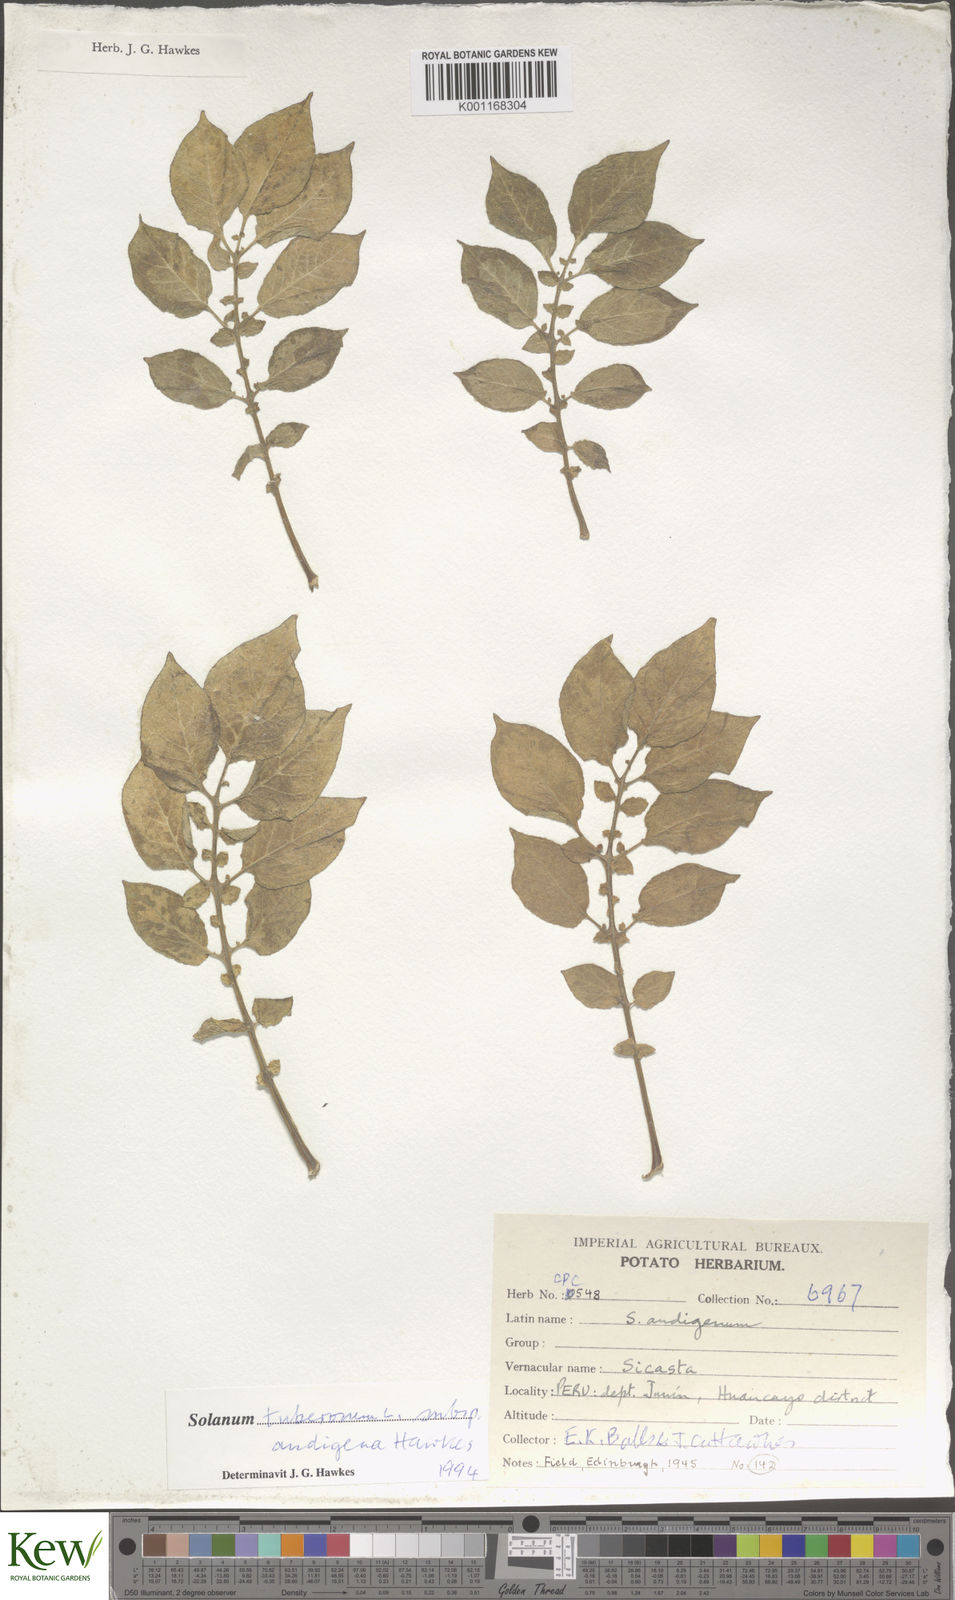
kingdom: Plantae
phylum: Tracheophyta
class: Magnoliopsida
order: Solanales
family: Solanaceae
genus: Solanum
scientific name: Solanum tuberosum
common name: Potato
